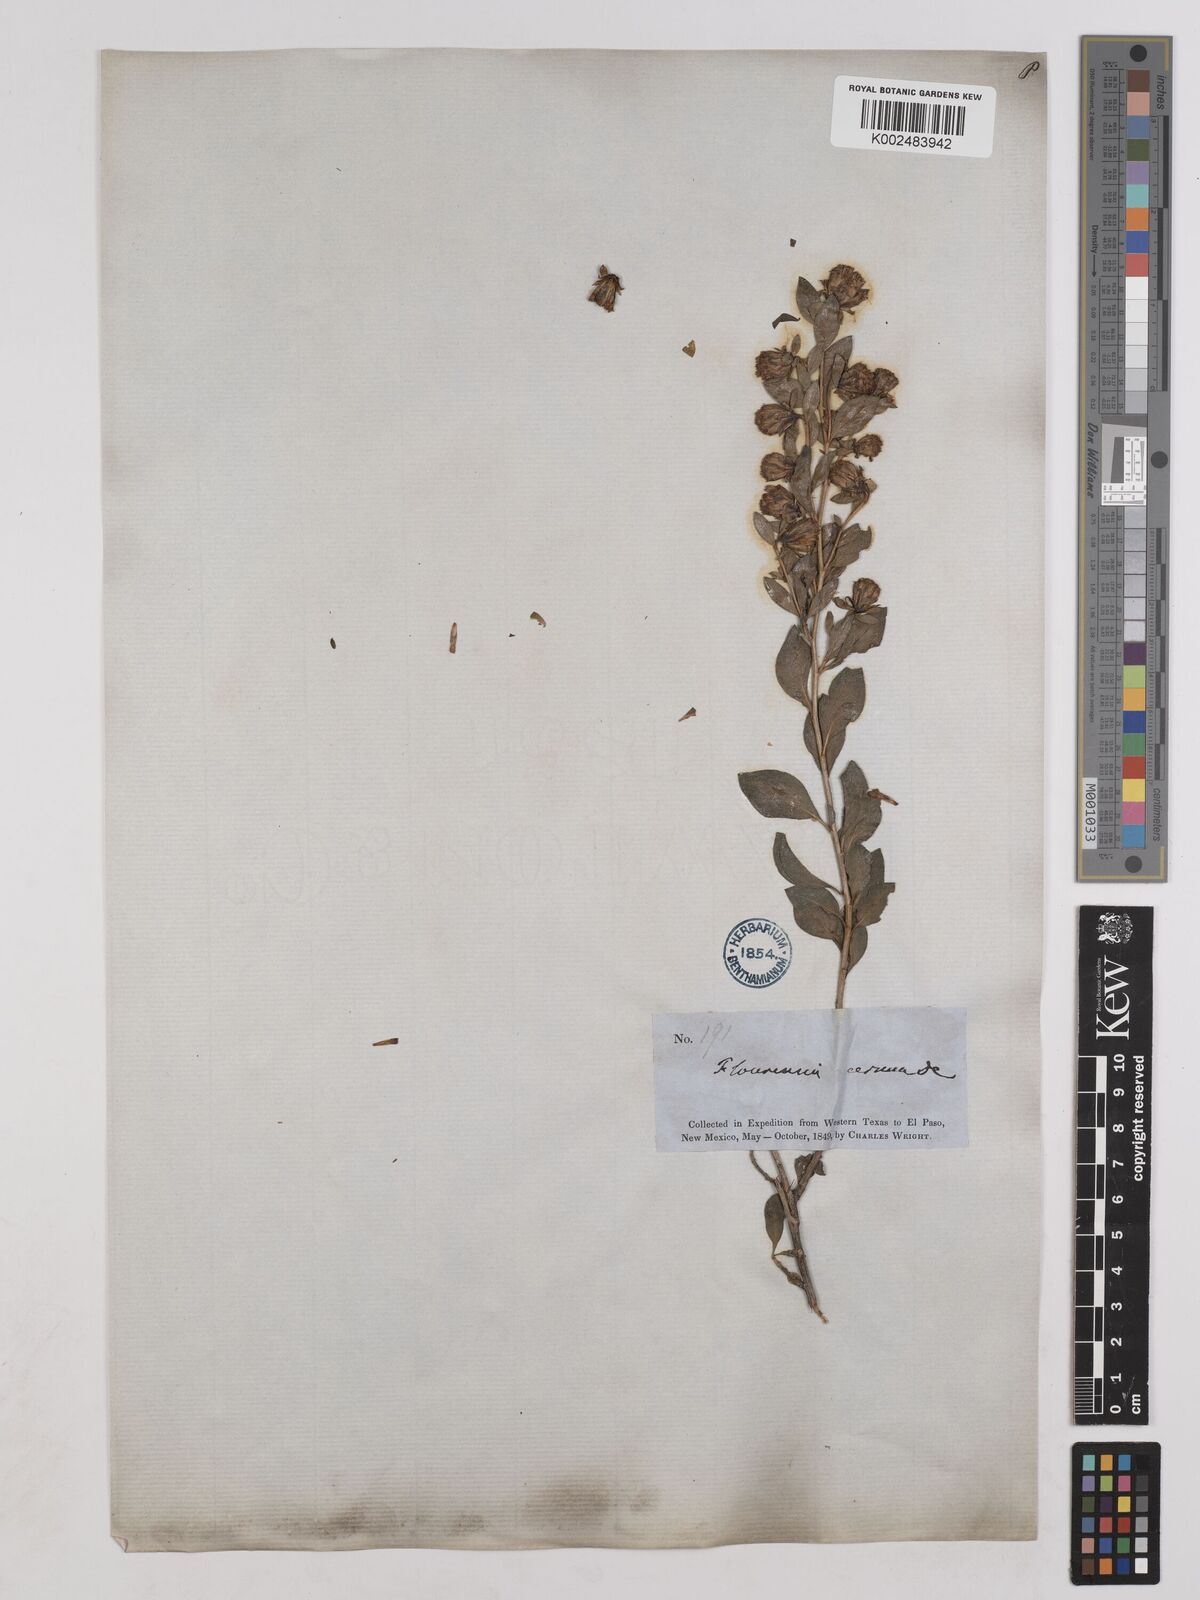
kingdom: Plantae
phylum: Tracheophyta
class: Magnoliopsida
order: Asterales
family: Asteraceae
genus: Flourensia
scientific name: Flourensia cernua
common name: Varnishbush
